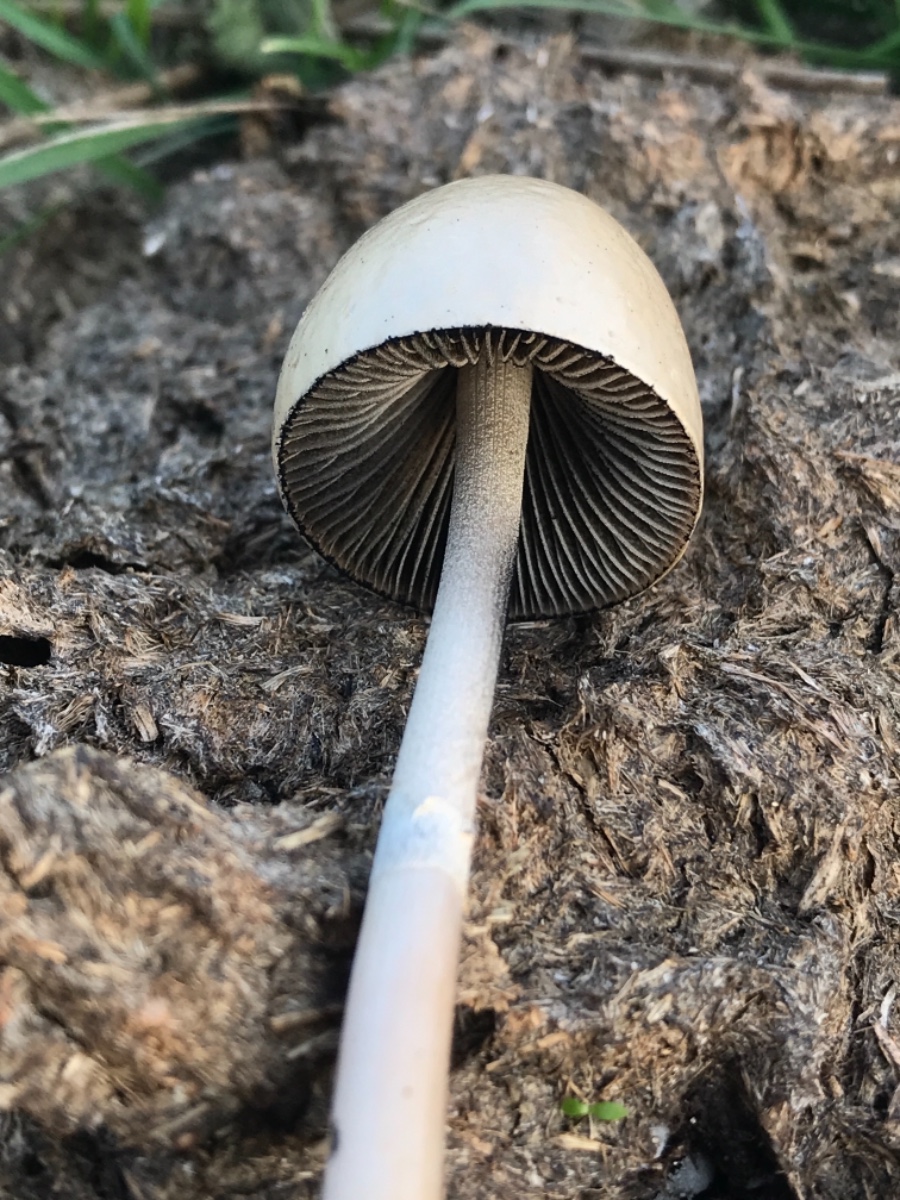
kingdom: Fungi
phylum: Basidiomycota
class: Agaricomycetes
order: Agaricales
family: Bolbitiaceae
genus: Panaeolus
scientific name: Panaeolus semiovatus
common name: ring-glanshat
